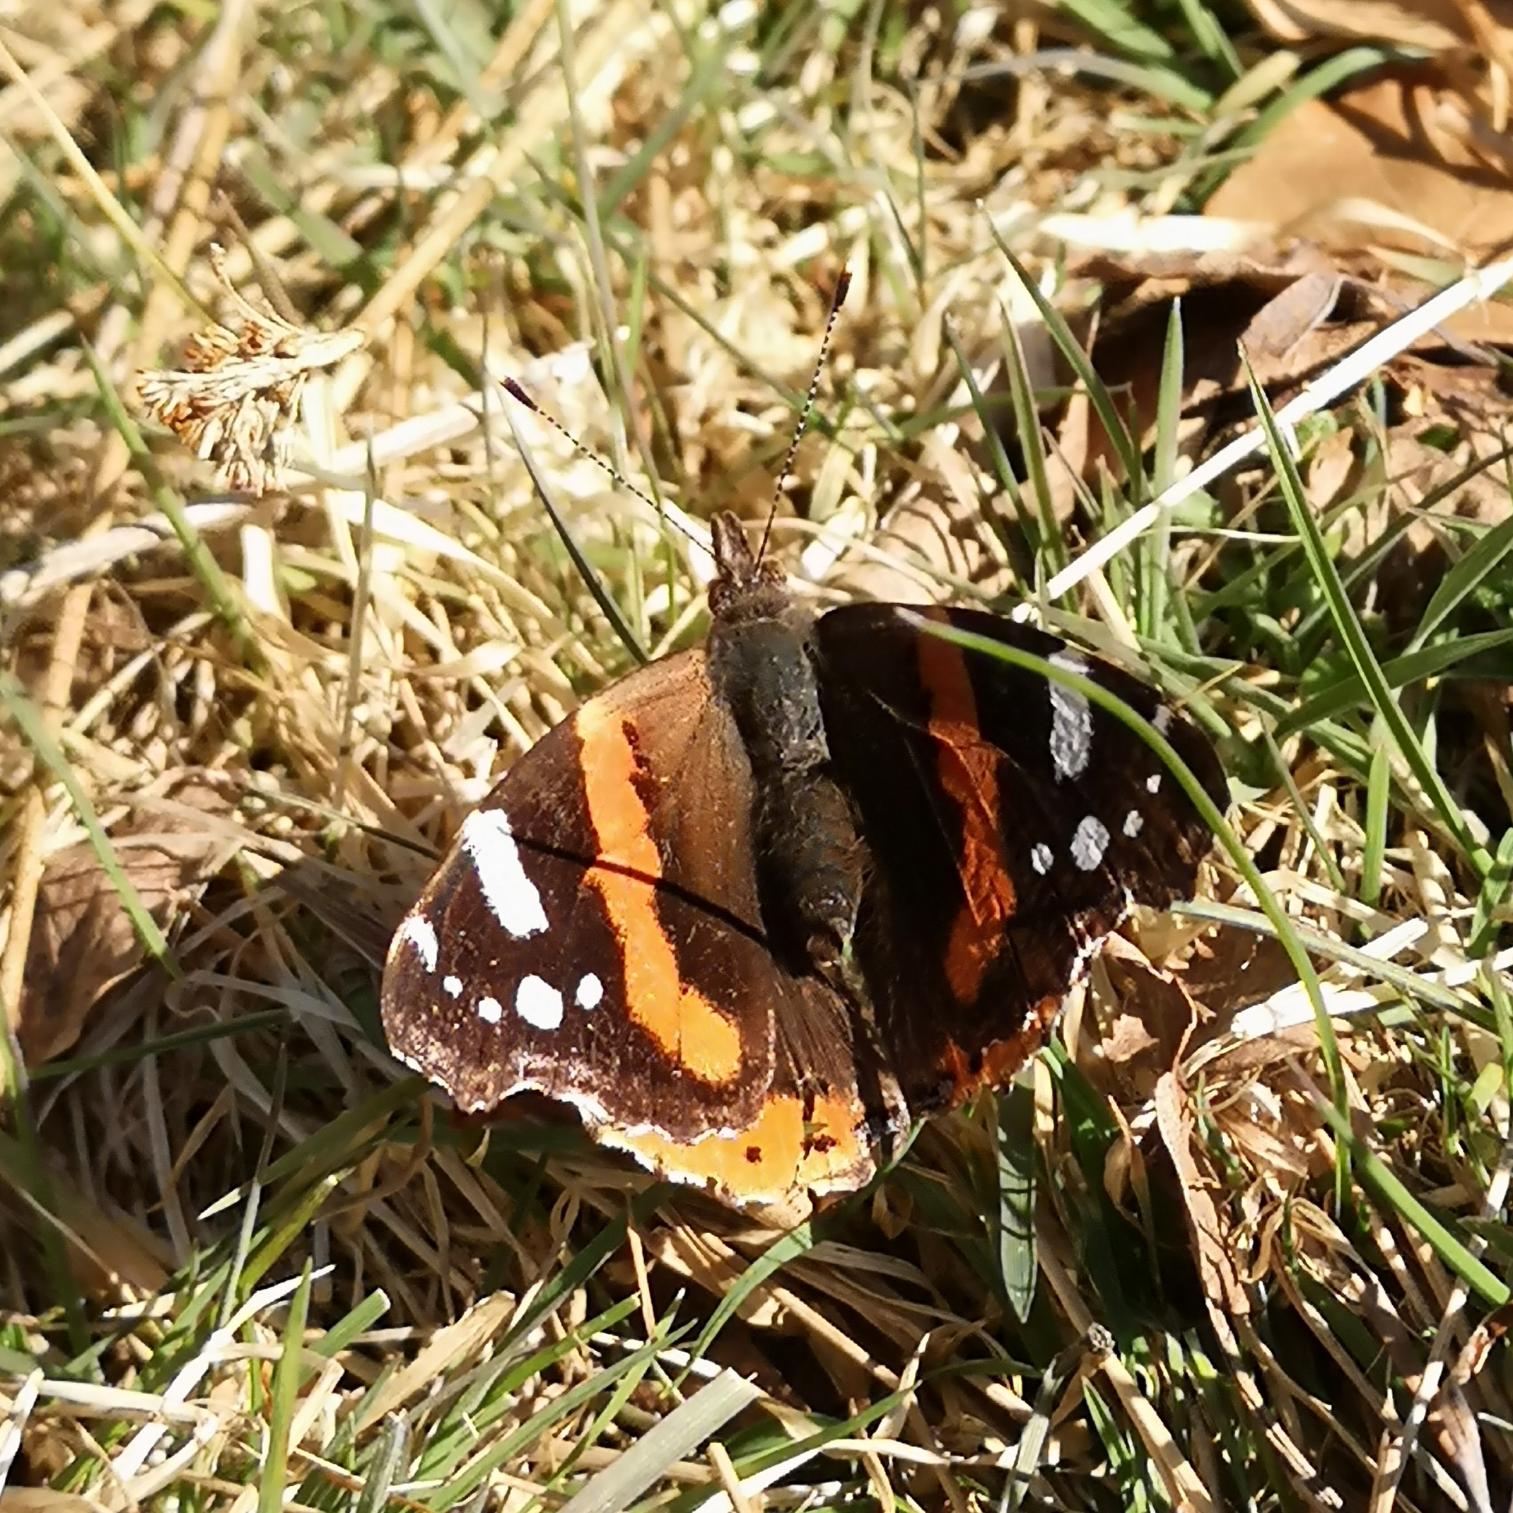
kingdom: Animalia
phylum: Arthropoda
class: Insecta
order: Lepidoptera
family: Nymphalidae
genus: Vanessa
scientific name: Vanessa atalanta
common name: Admiral
